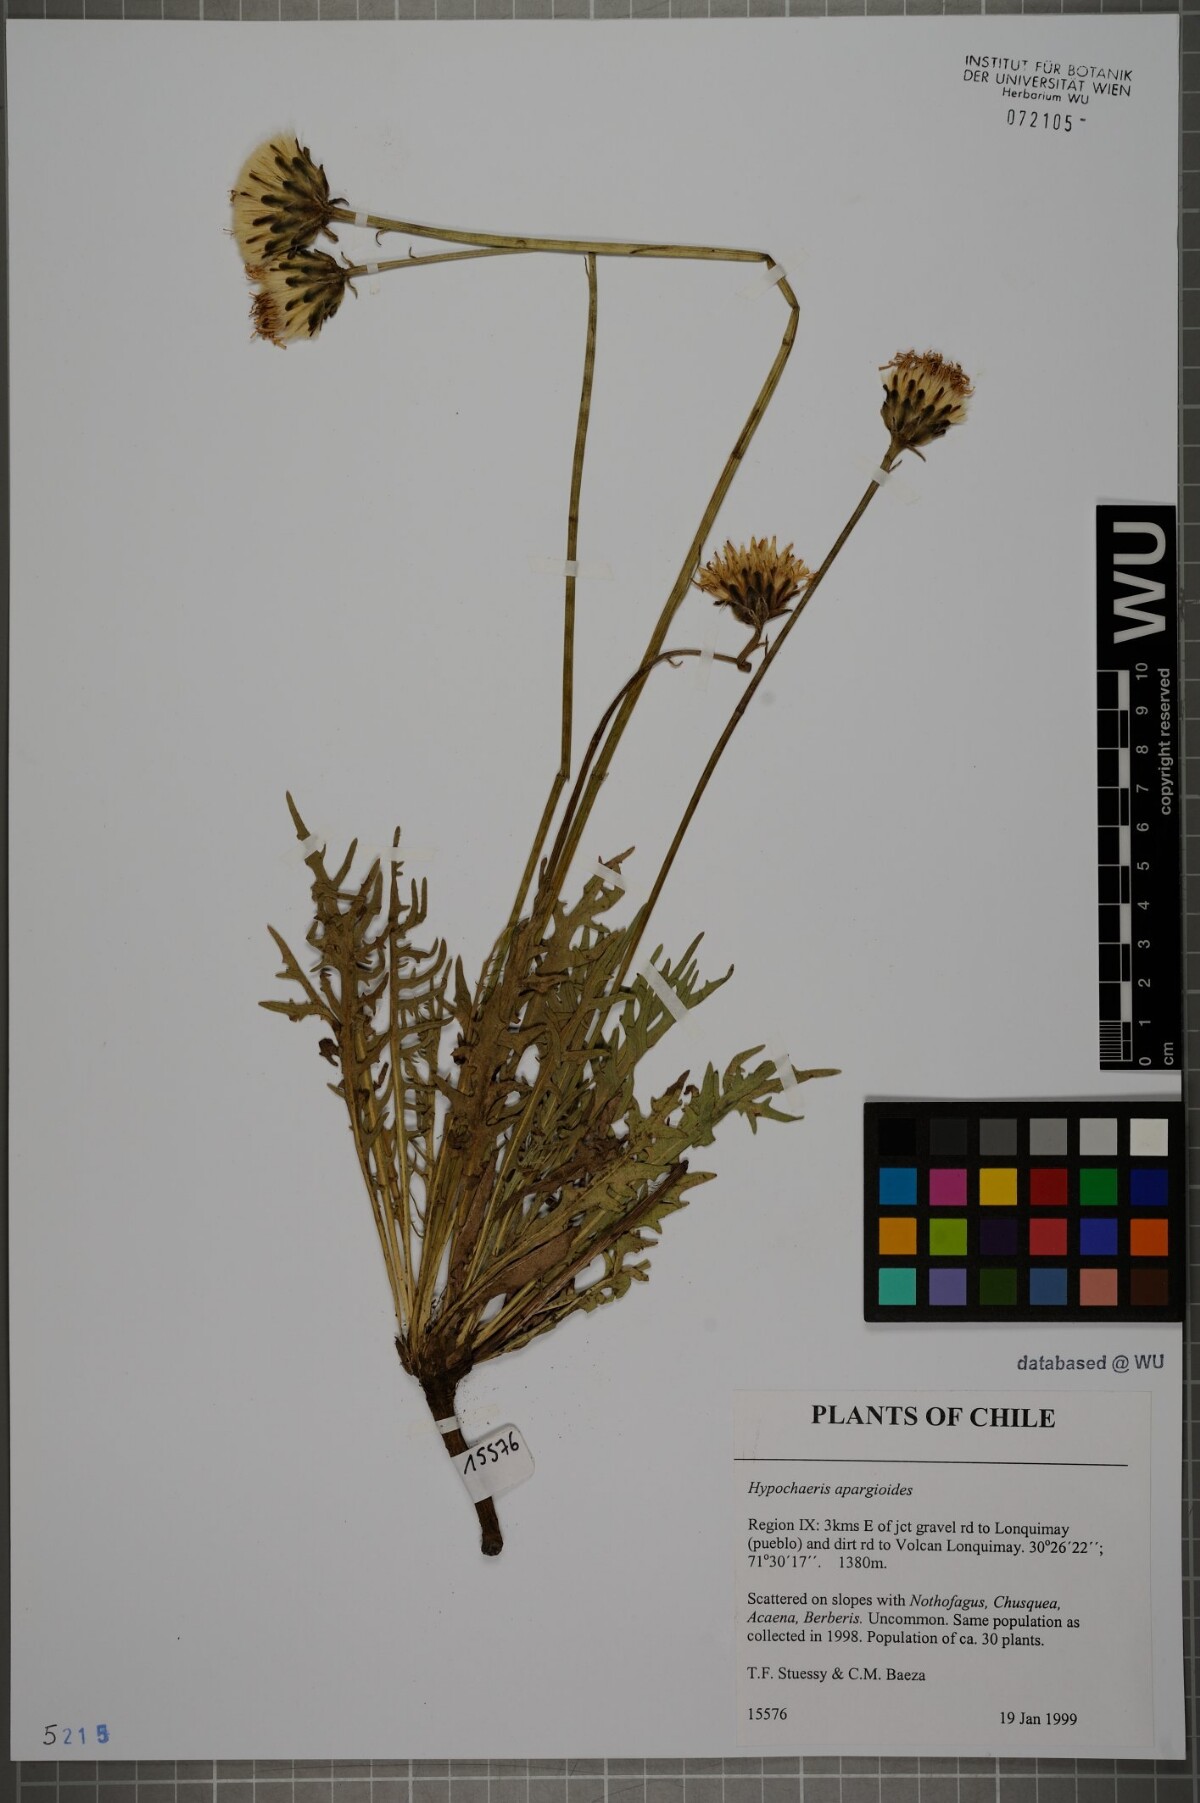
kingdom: Plantae
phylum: Tracheophyta
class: Magnoliopsida
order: Asterales
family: Asteraceae
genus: Hypochaeris
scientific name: Hypochaeris apargioides
